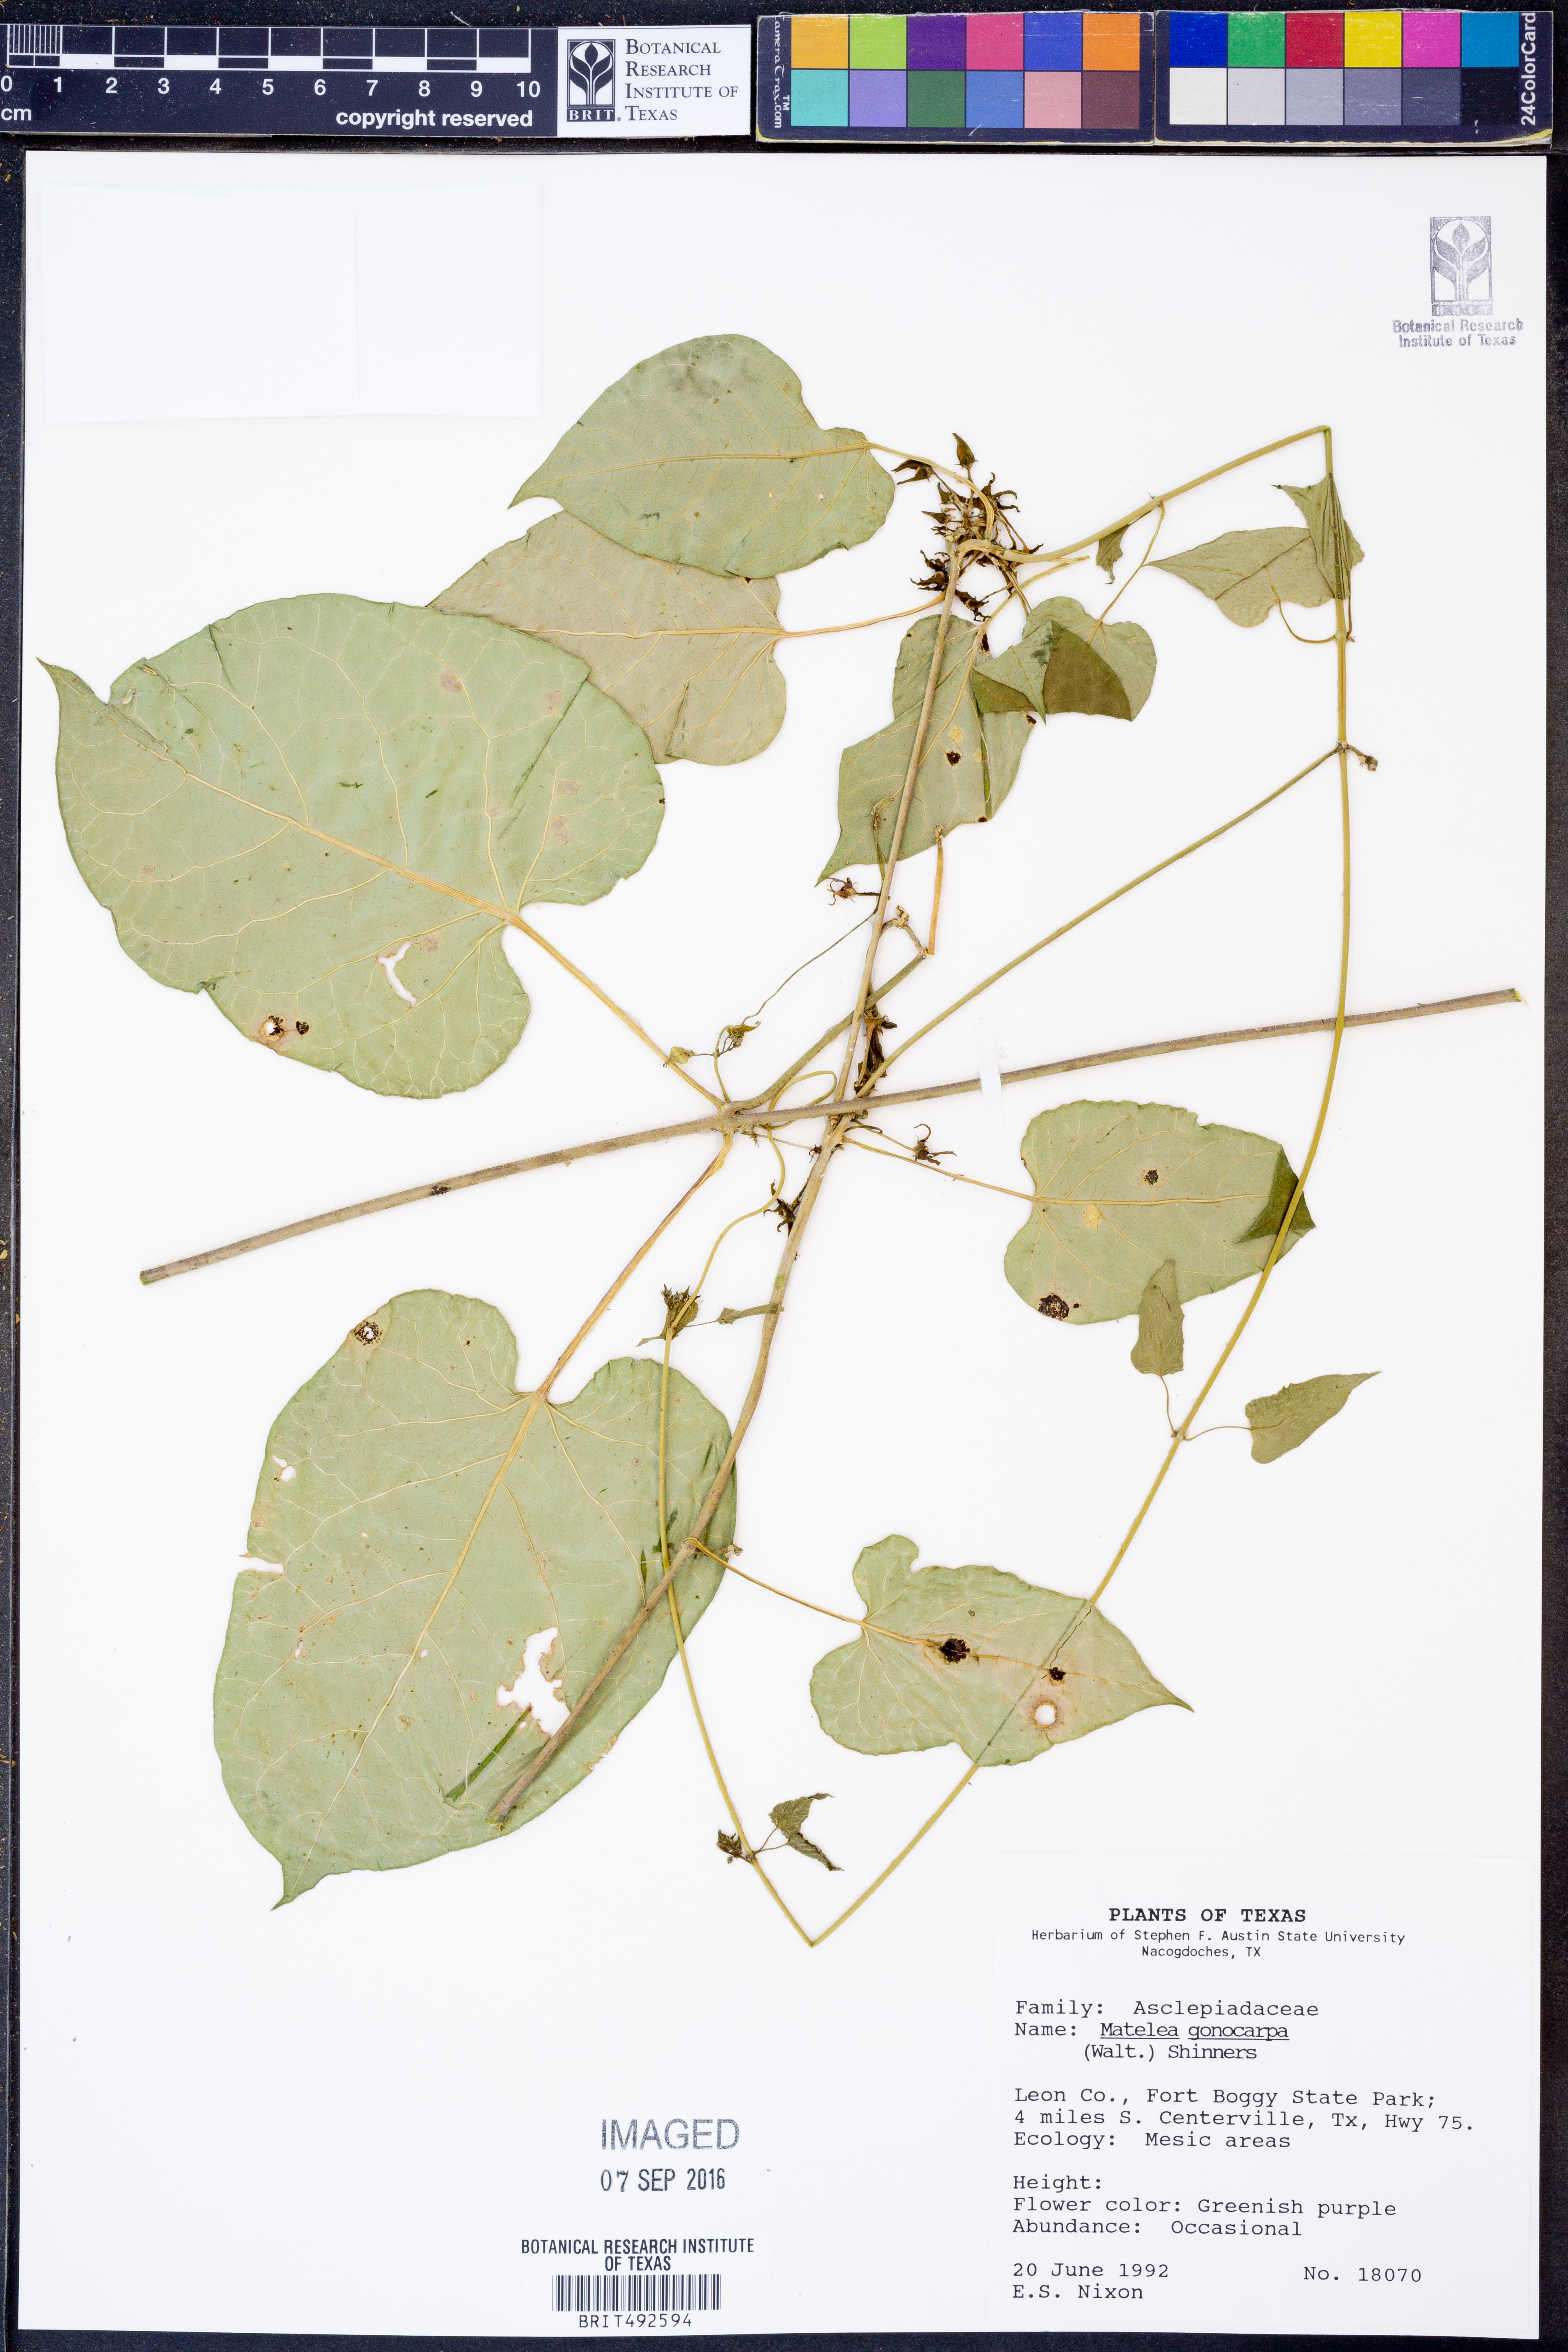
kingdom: Plantae
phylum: Tracheophyta
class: Magnoliopsida
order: Gentianales
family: Apocynaceae
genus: Gonolobus
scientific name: Gonolobus gonocarpus
